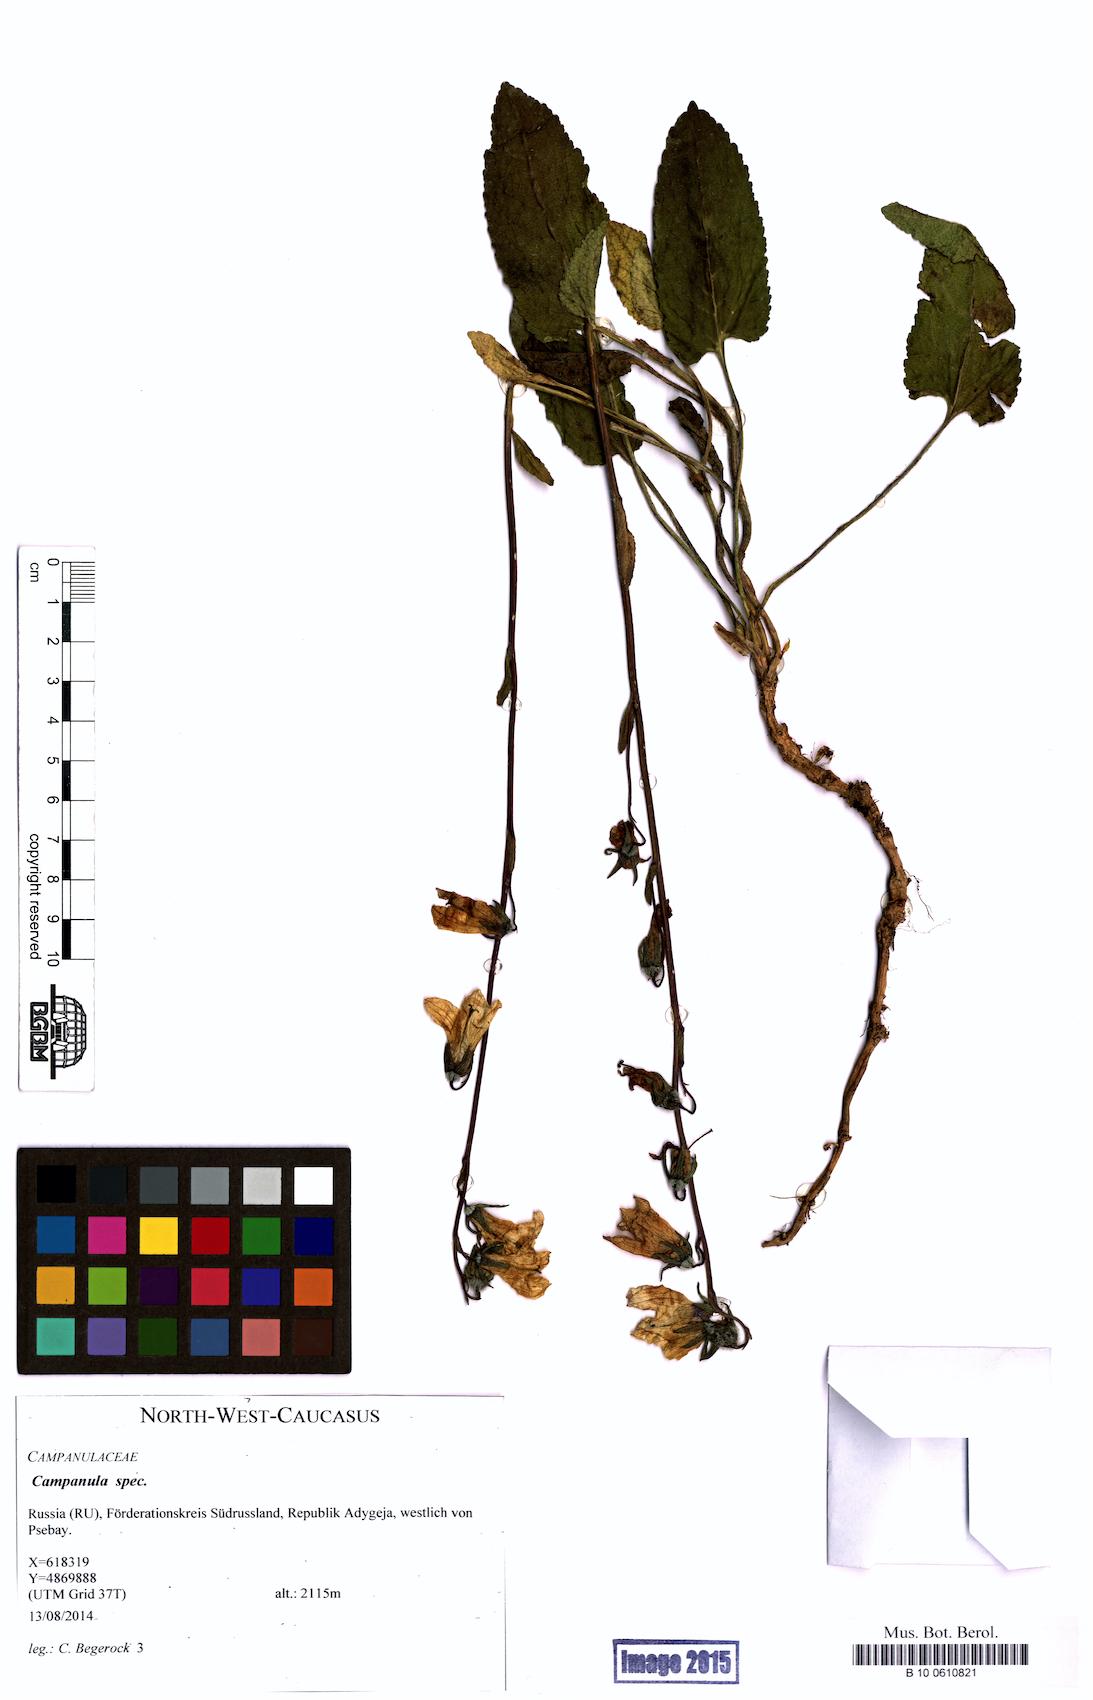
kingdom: Plantae
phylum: Tracheophyta
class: Magnoliopsida
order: Asterales
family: Campanulaceae
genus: Campanula
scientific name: Campanula
